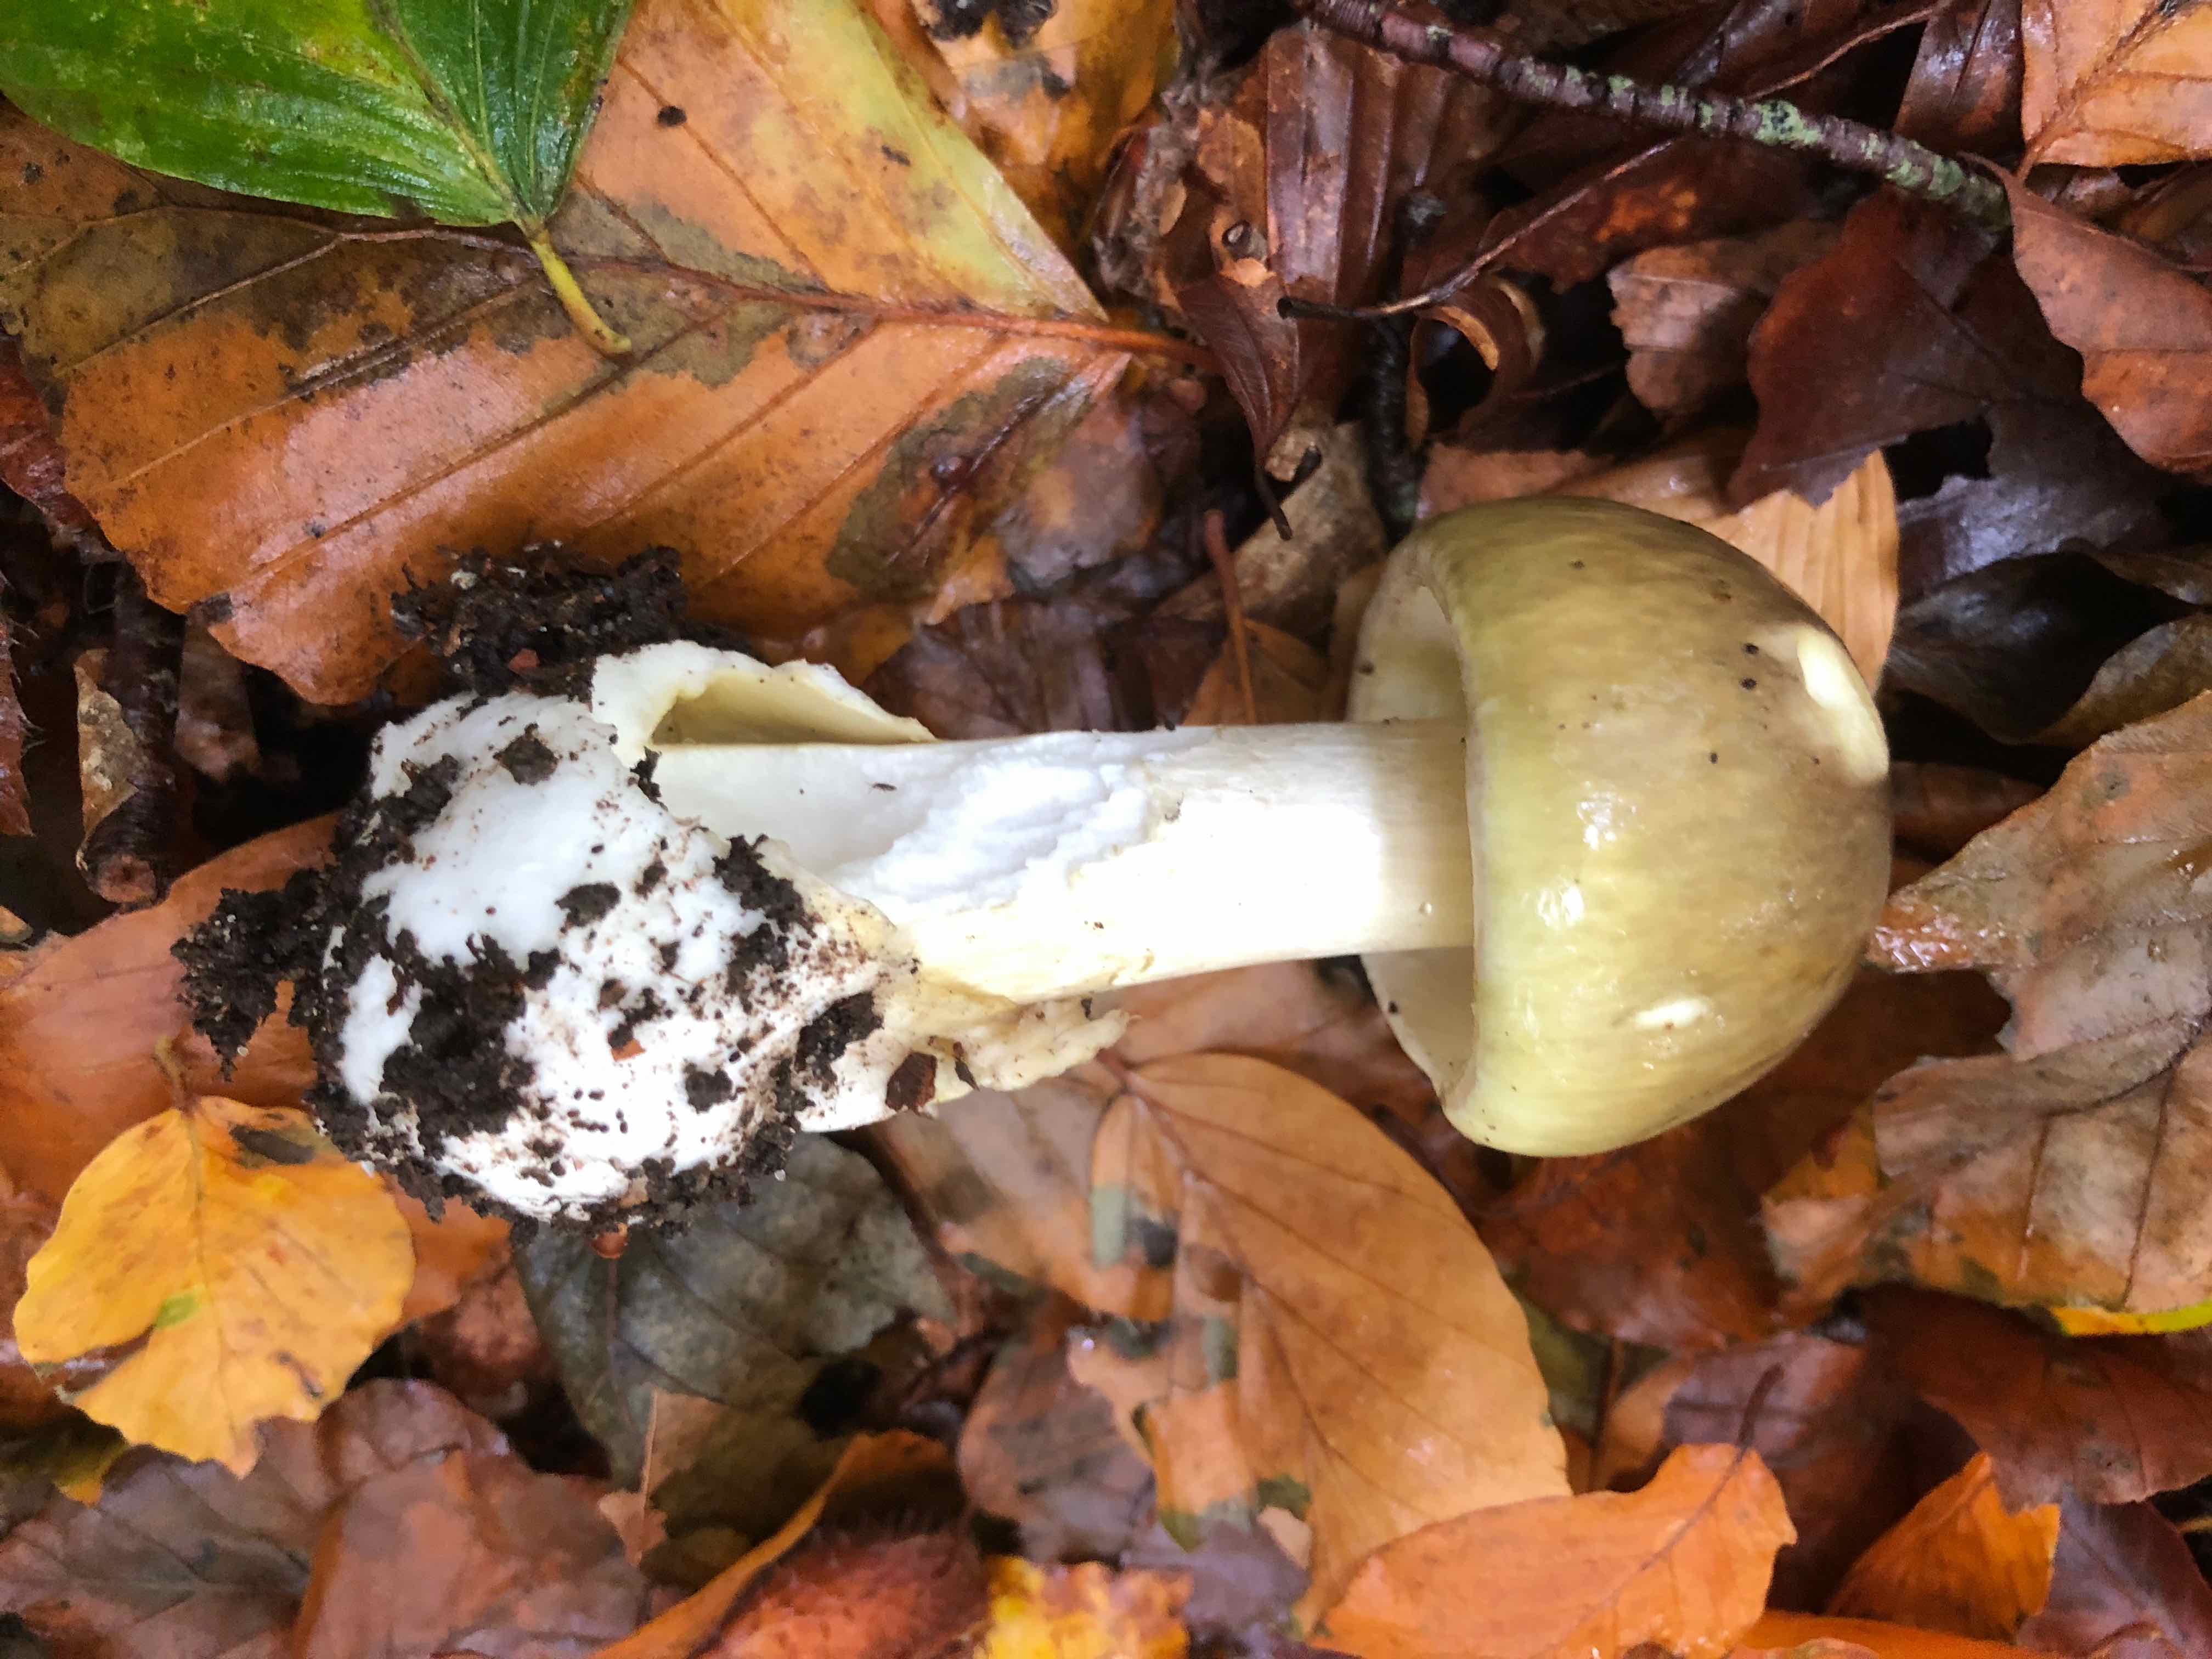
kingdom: Fungi
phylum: Basidiomycota
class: Agaricomycetes
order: Agaricales
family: Amanitaceae
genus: Amanita
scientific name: Amanita phalloides
